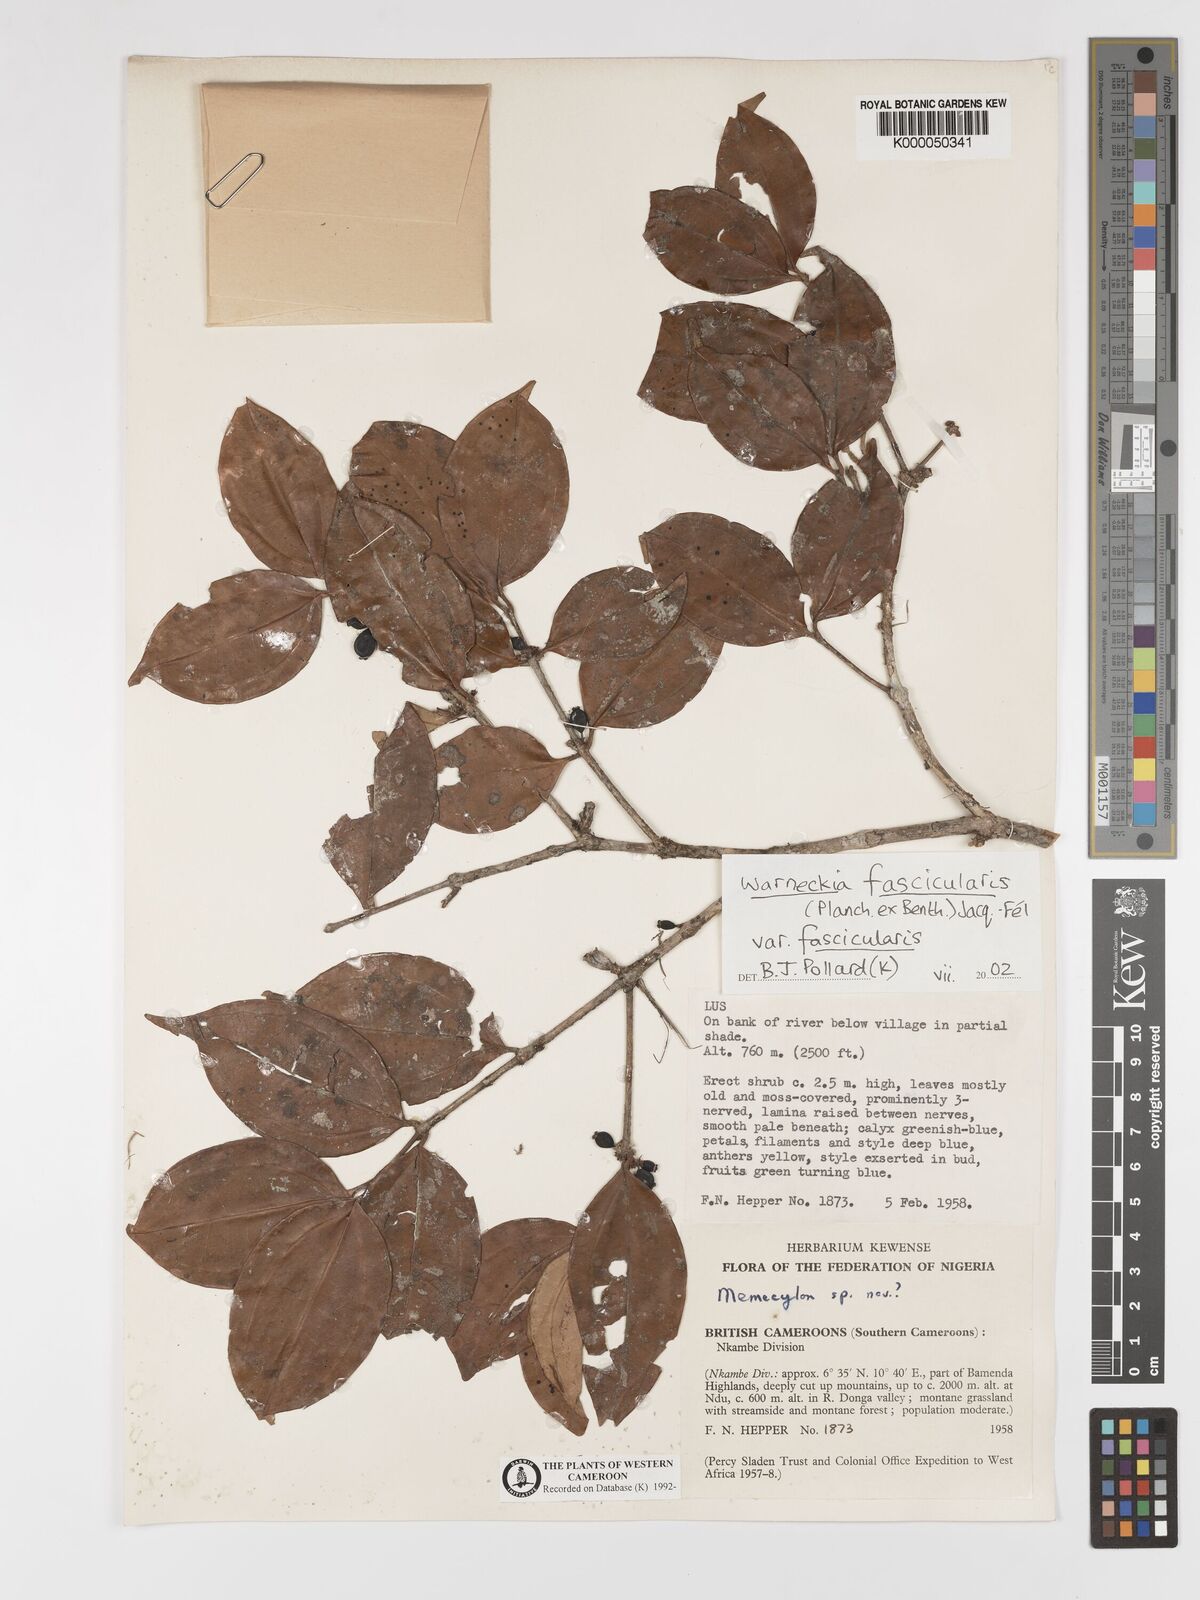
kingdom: Plantae
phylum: Tracheophyta
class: Magnoliopsida
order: Myrtales
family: Melastomataceae
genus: Warneckea
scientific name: Warneckea
